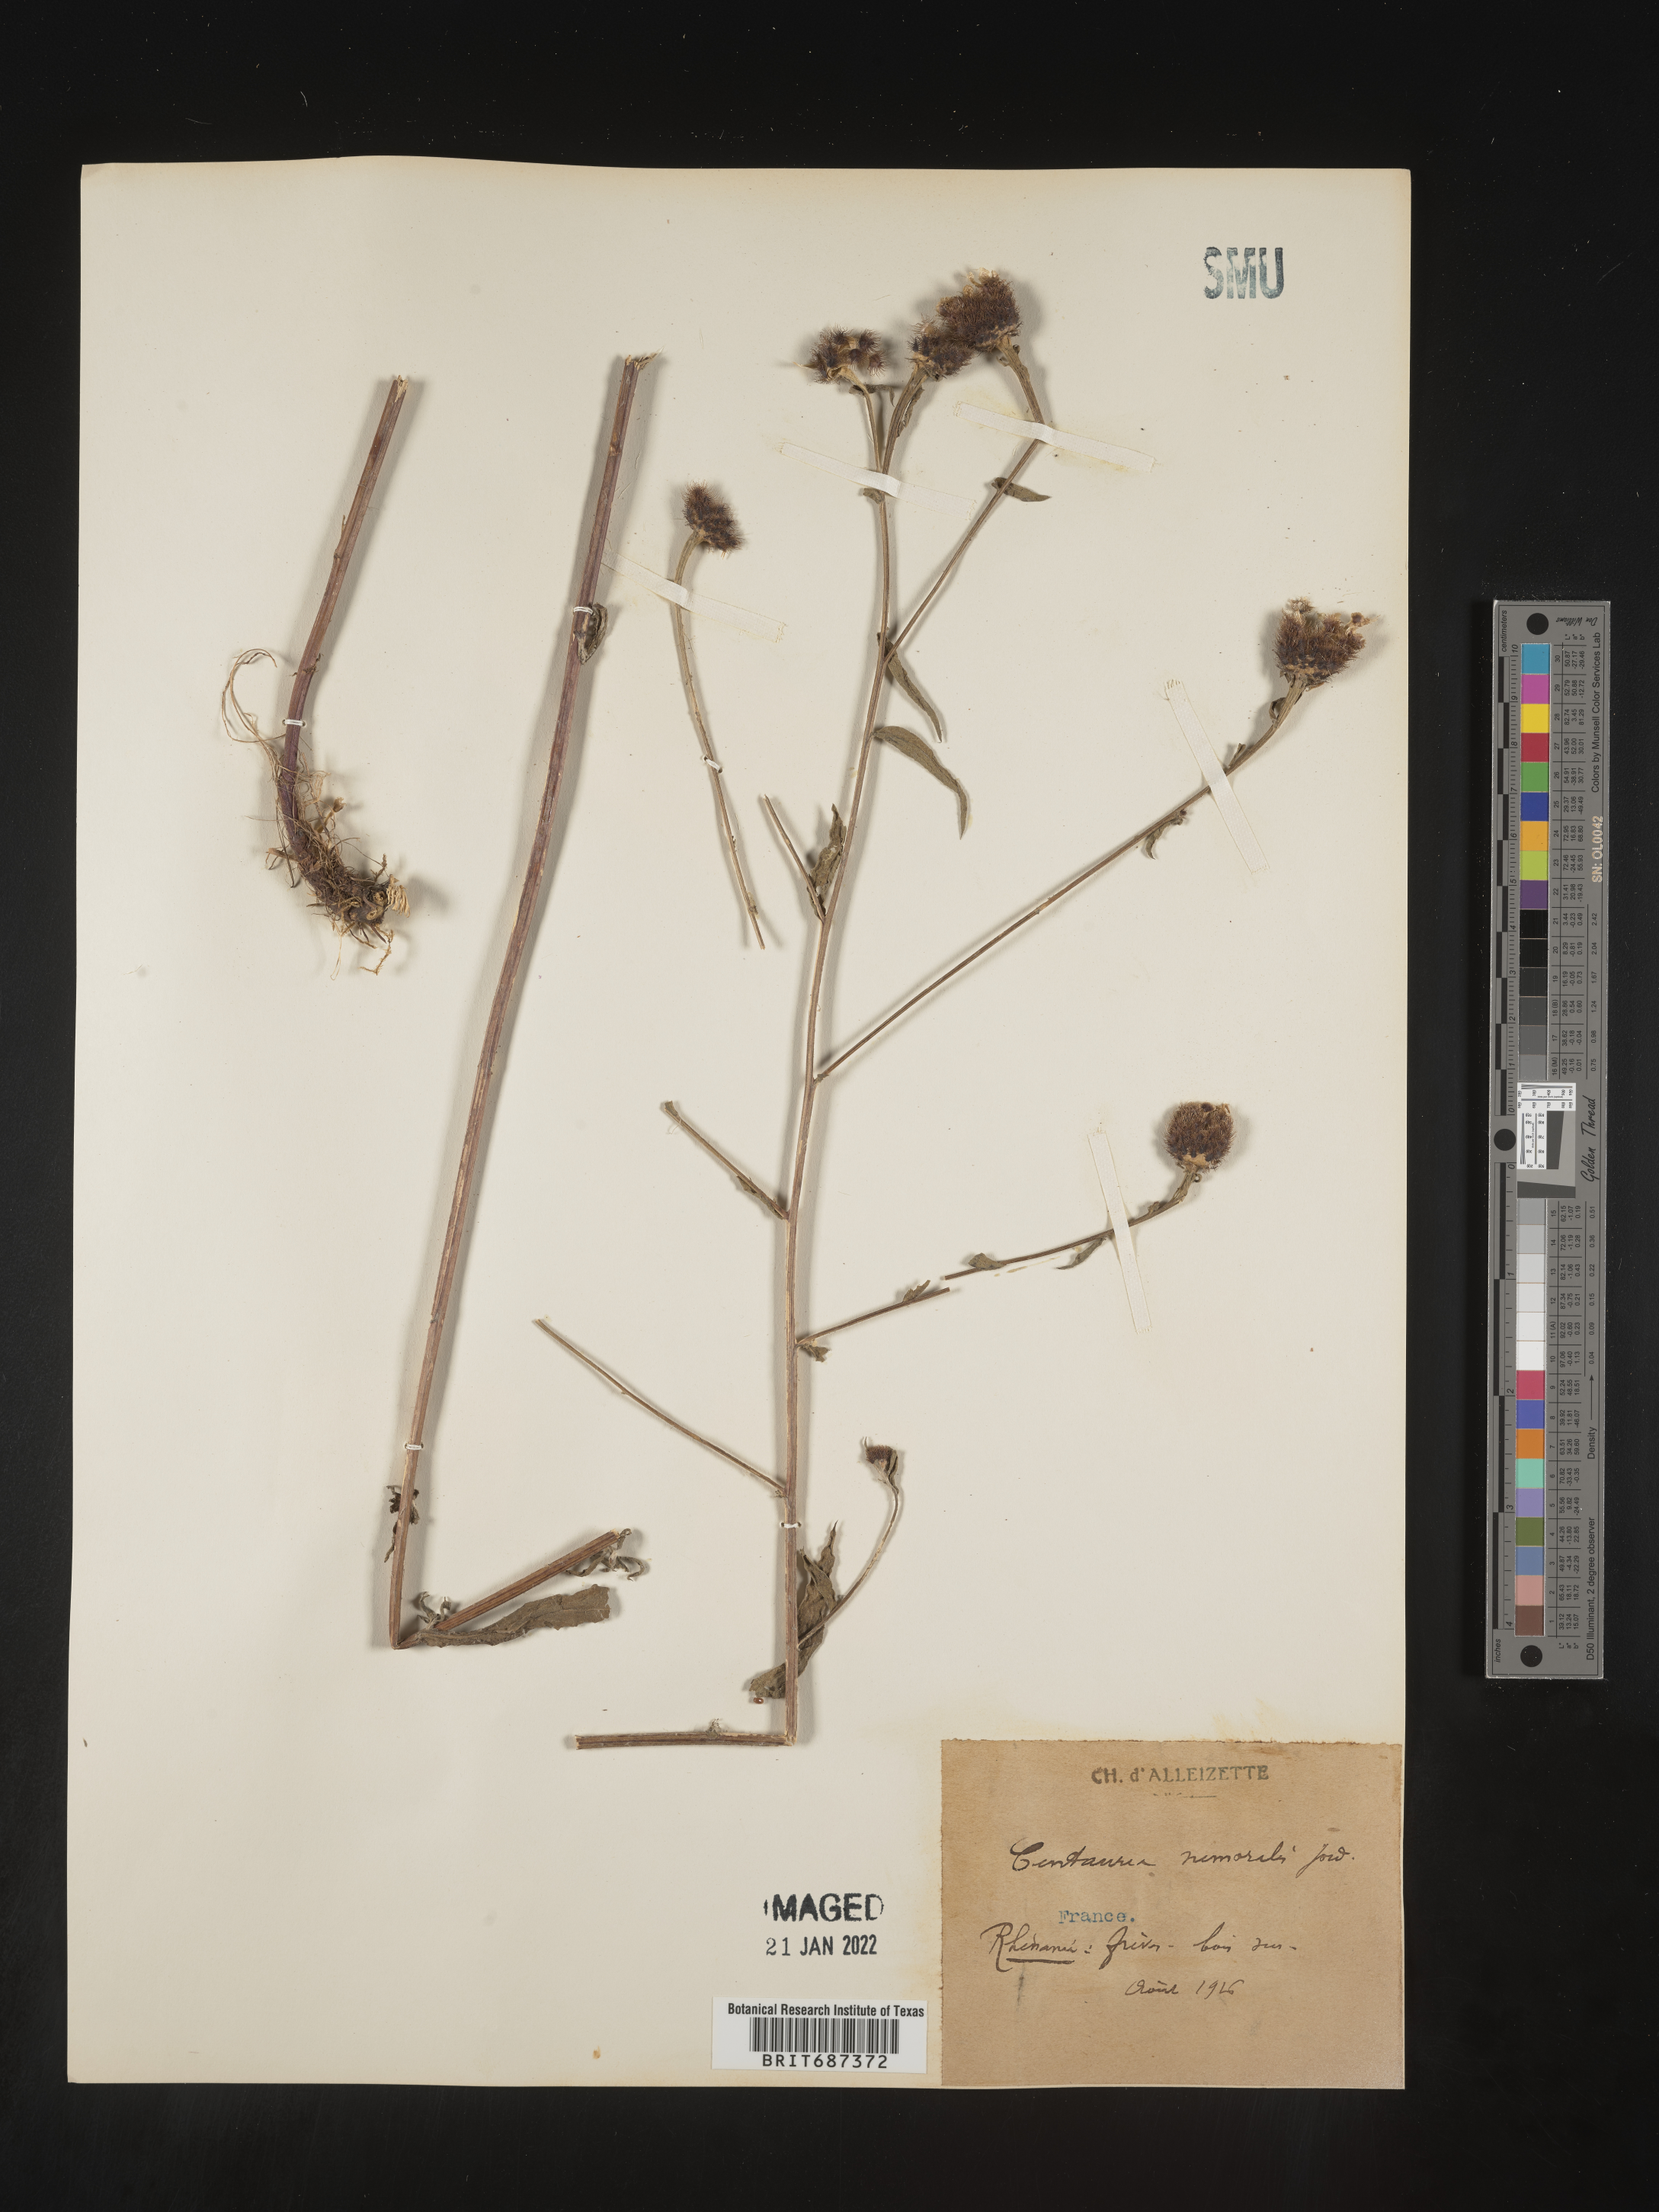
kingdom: Plantae
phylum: Tracheophyta
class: Magnoliopsida
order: Asterales
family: Asteraceae
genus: Centaurea
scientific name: Centaurea
